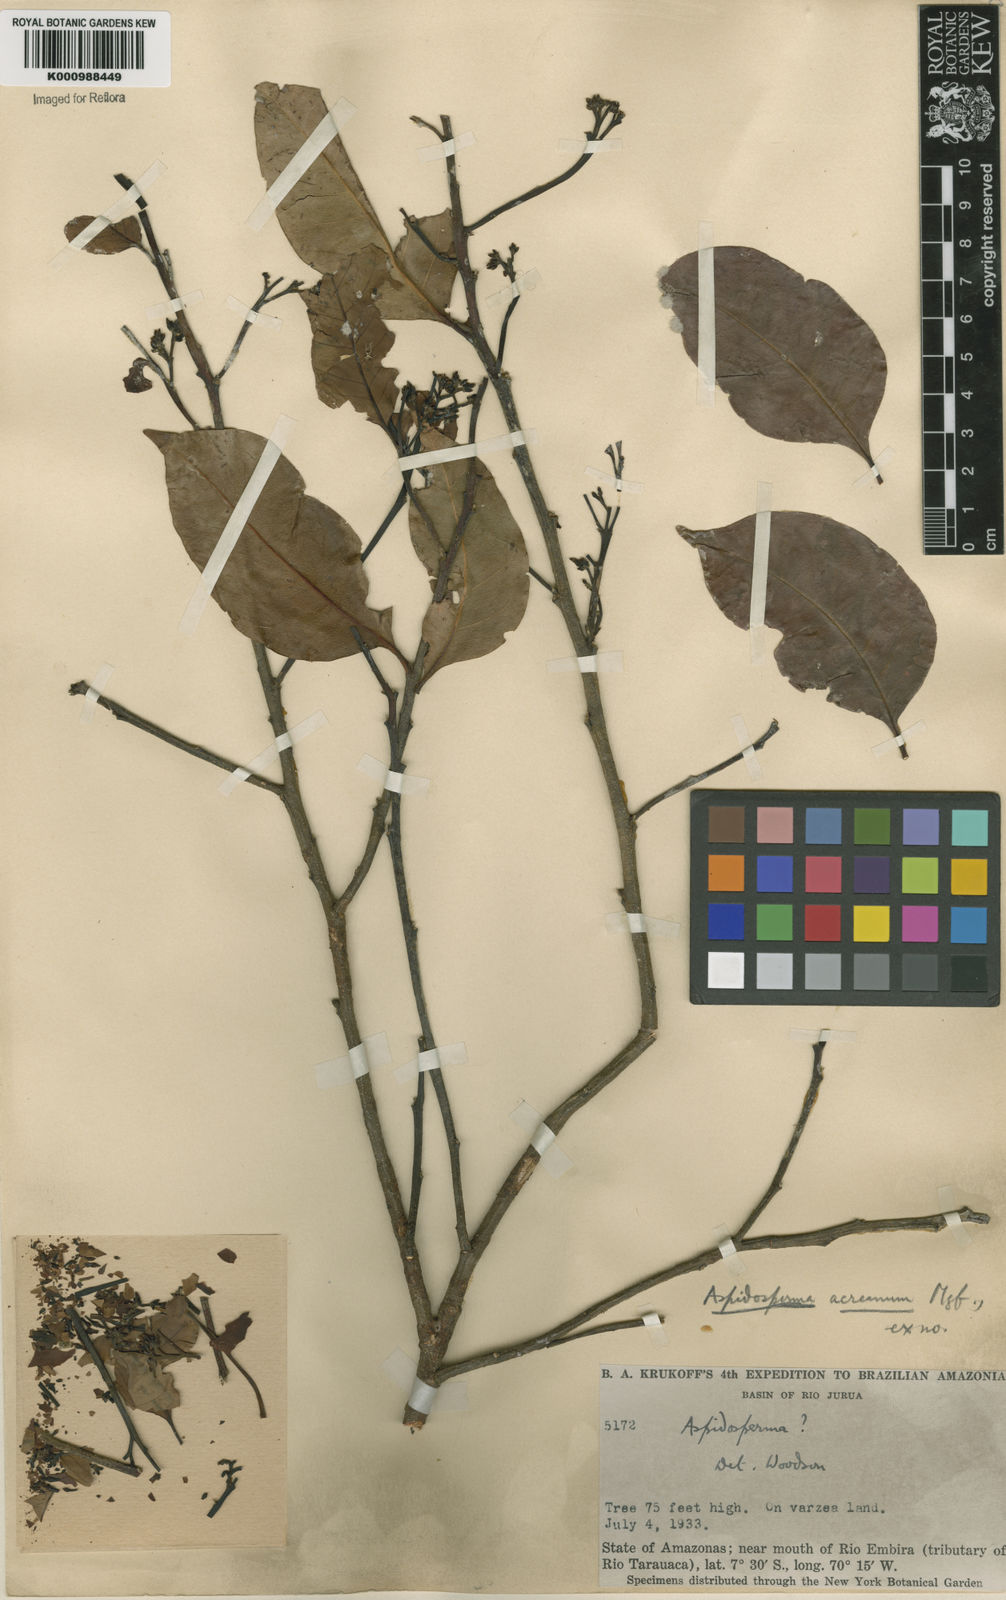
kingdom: Plantae
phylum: Tracheophyta
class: Magnoliopsida
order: Gentianales
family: Apocynaceae
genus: Aspidosperma
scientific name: Aspidosperma rigidum
